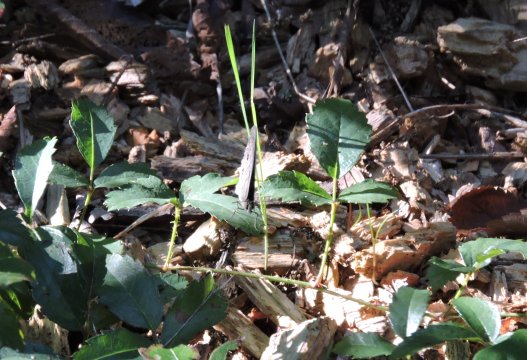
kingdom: Animalia
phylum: Arthropoda
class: Insecta
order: Lepidoptera
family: Nymphalidae
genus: Hermeuptychia
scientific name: Hermeuptychia hermes
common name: Carolina Satyr
